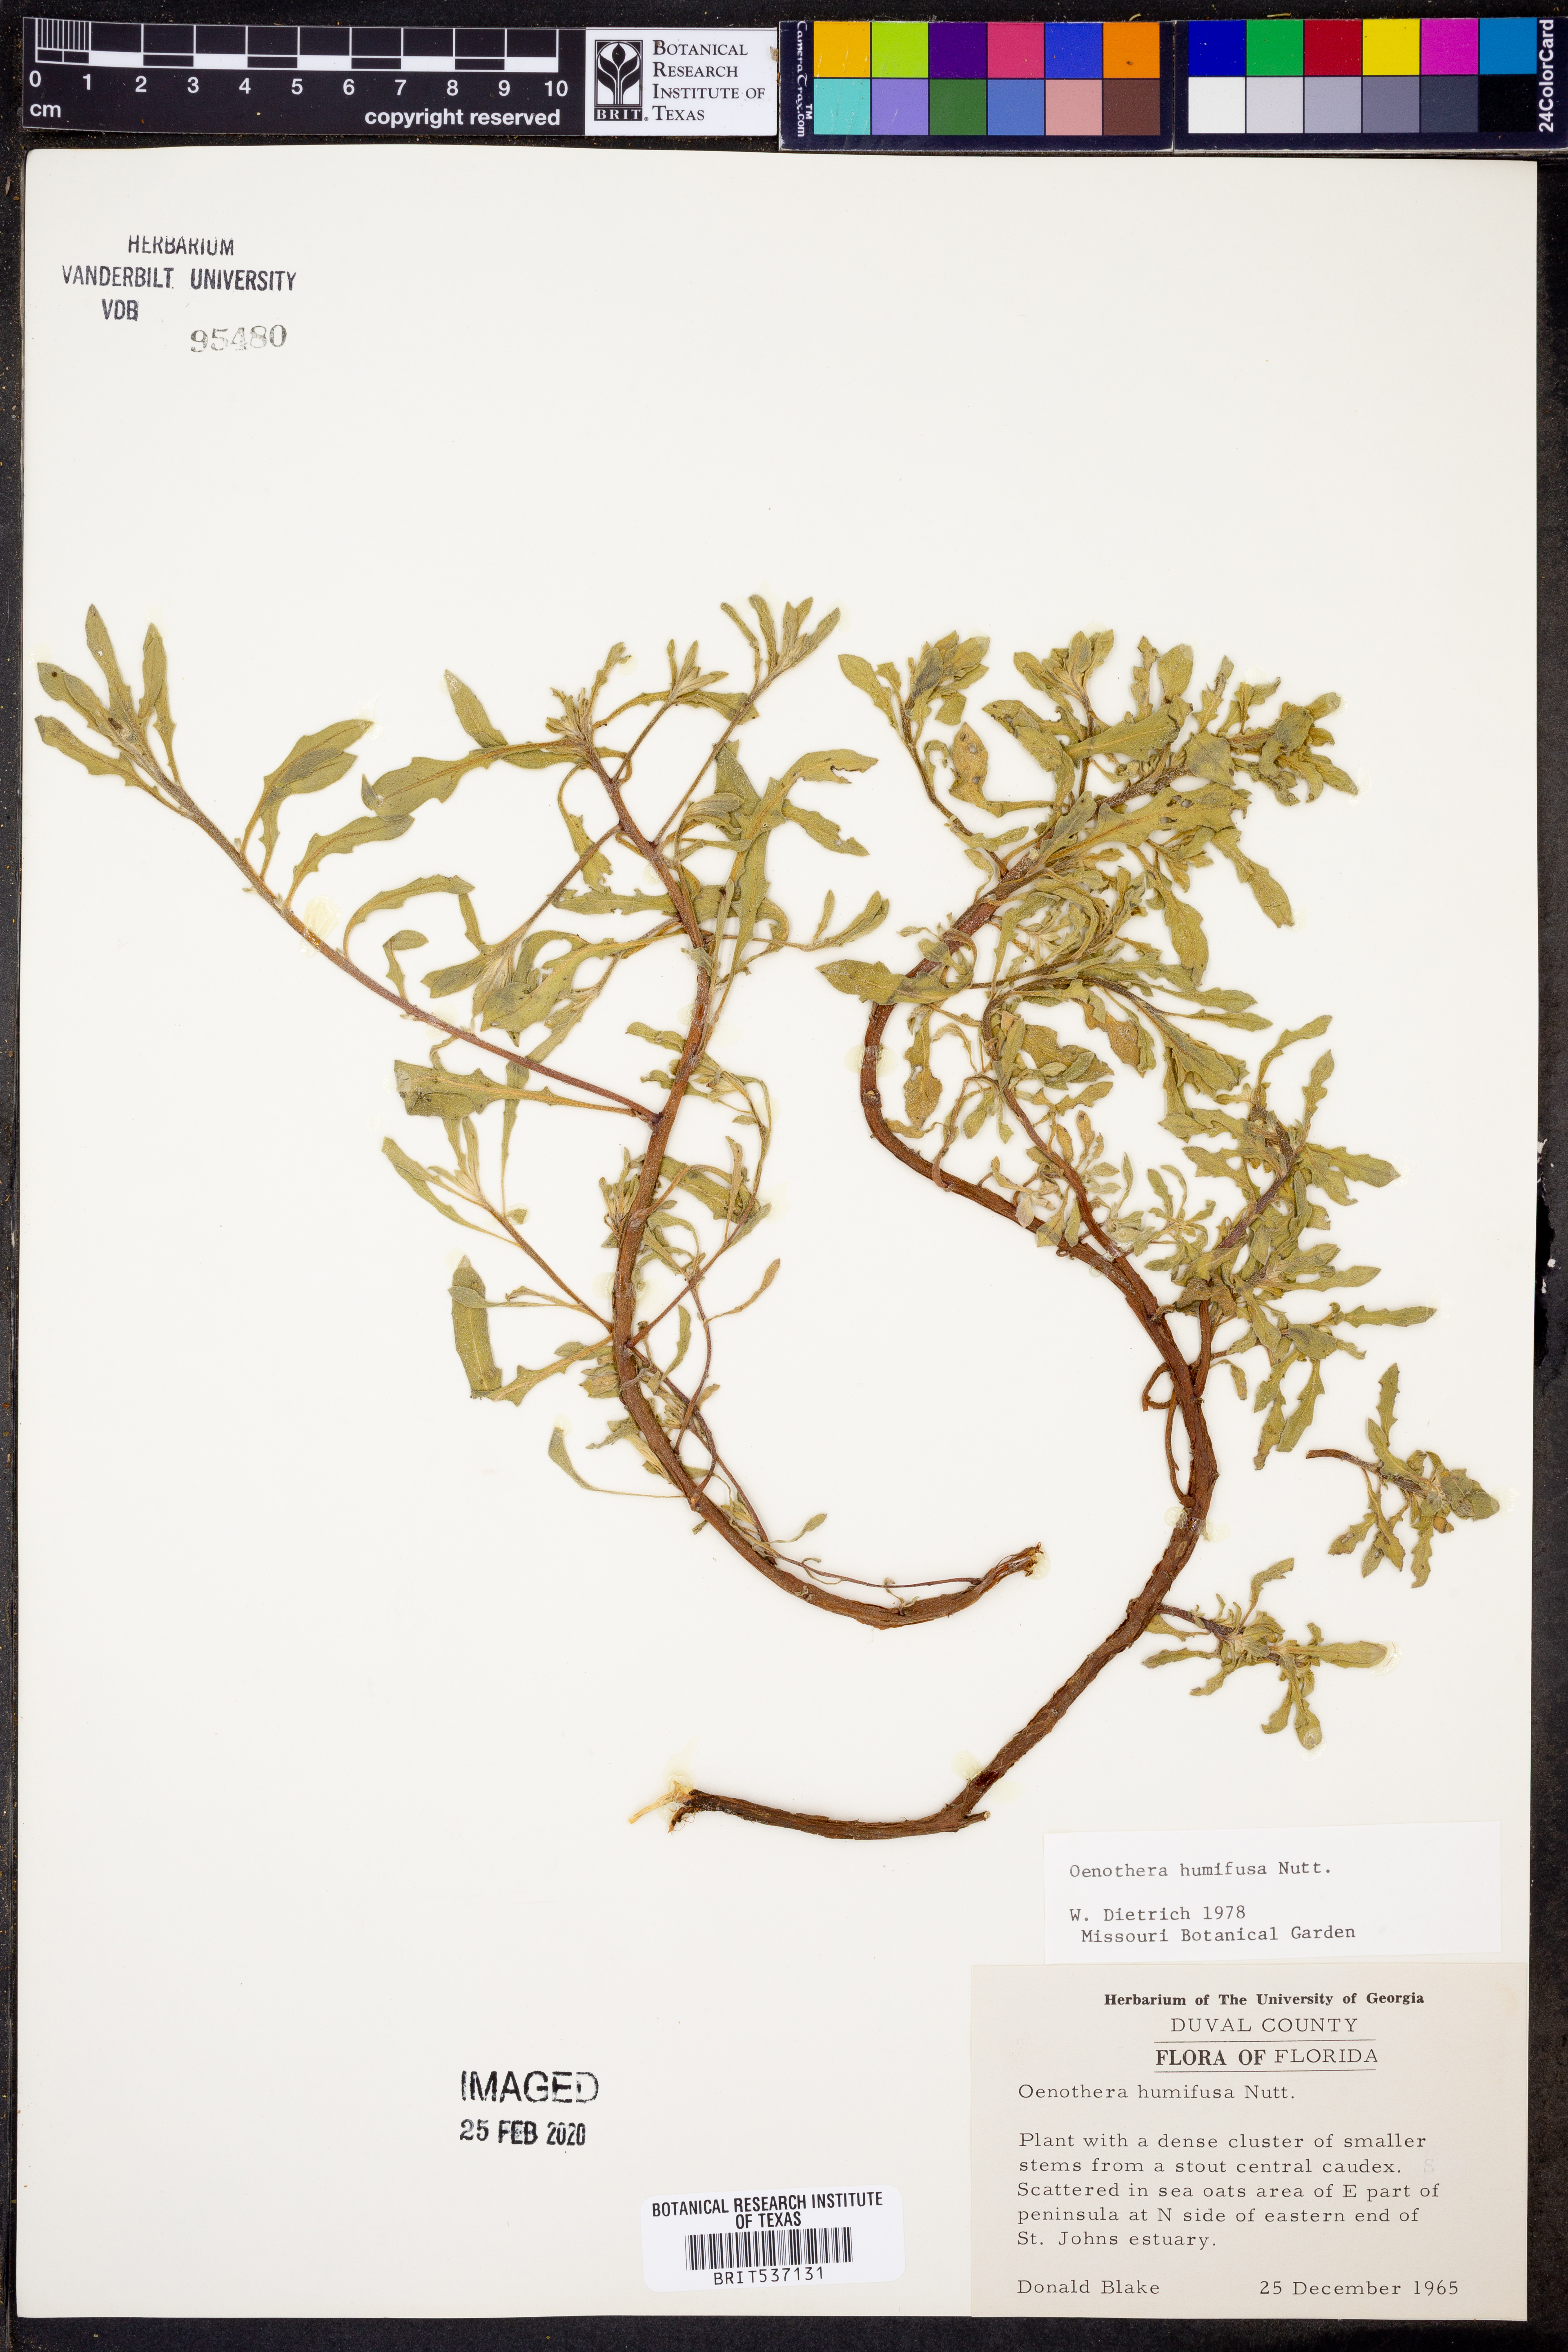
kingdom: Plantae
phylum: Tracheophyta
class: Magnoliopsida
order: Myrtales
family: Onagraceae
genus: Oenothera
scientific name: Oenothera humifusa
